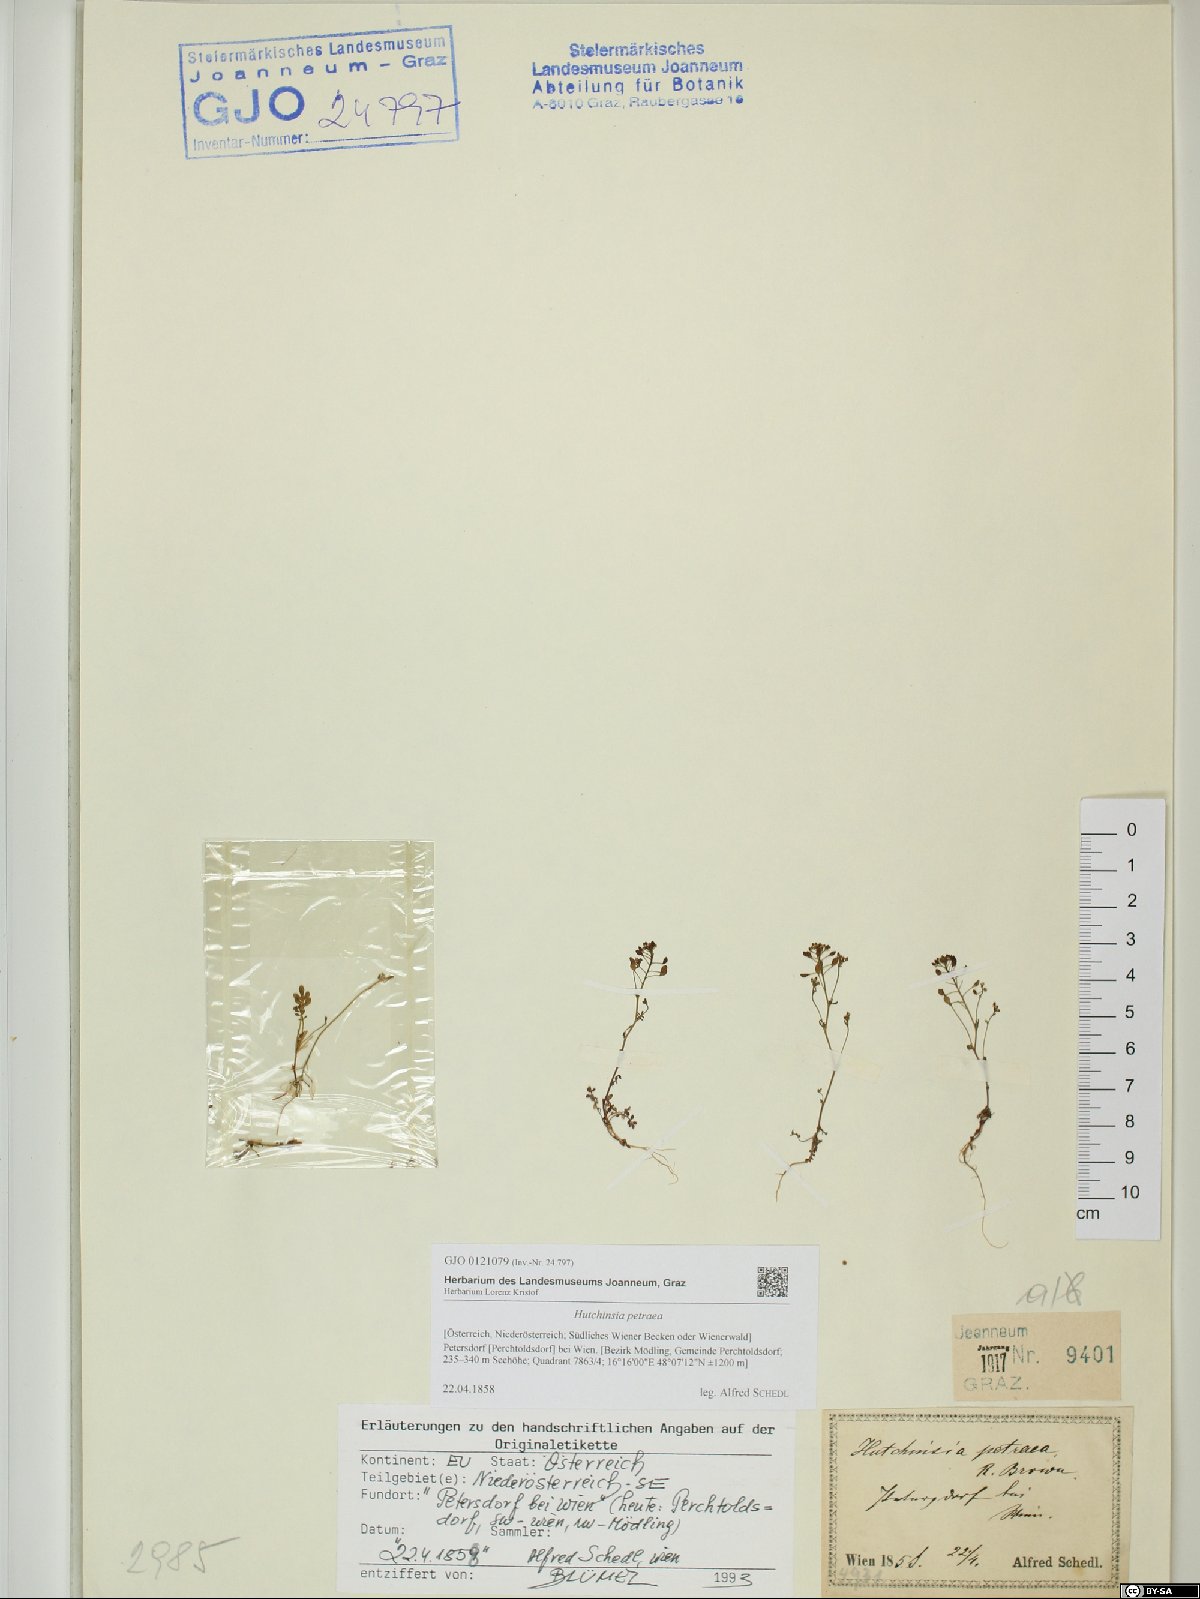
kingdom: Plantae
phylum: Tracheophyta
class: Magnoliopsida
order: Brassicales
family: Brassicaceae
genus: Hornungia
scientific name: Hornungia petraea
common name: Hutchinsia
